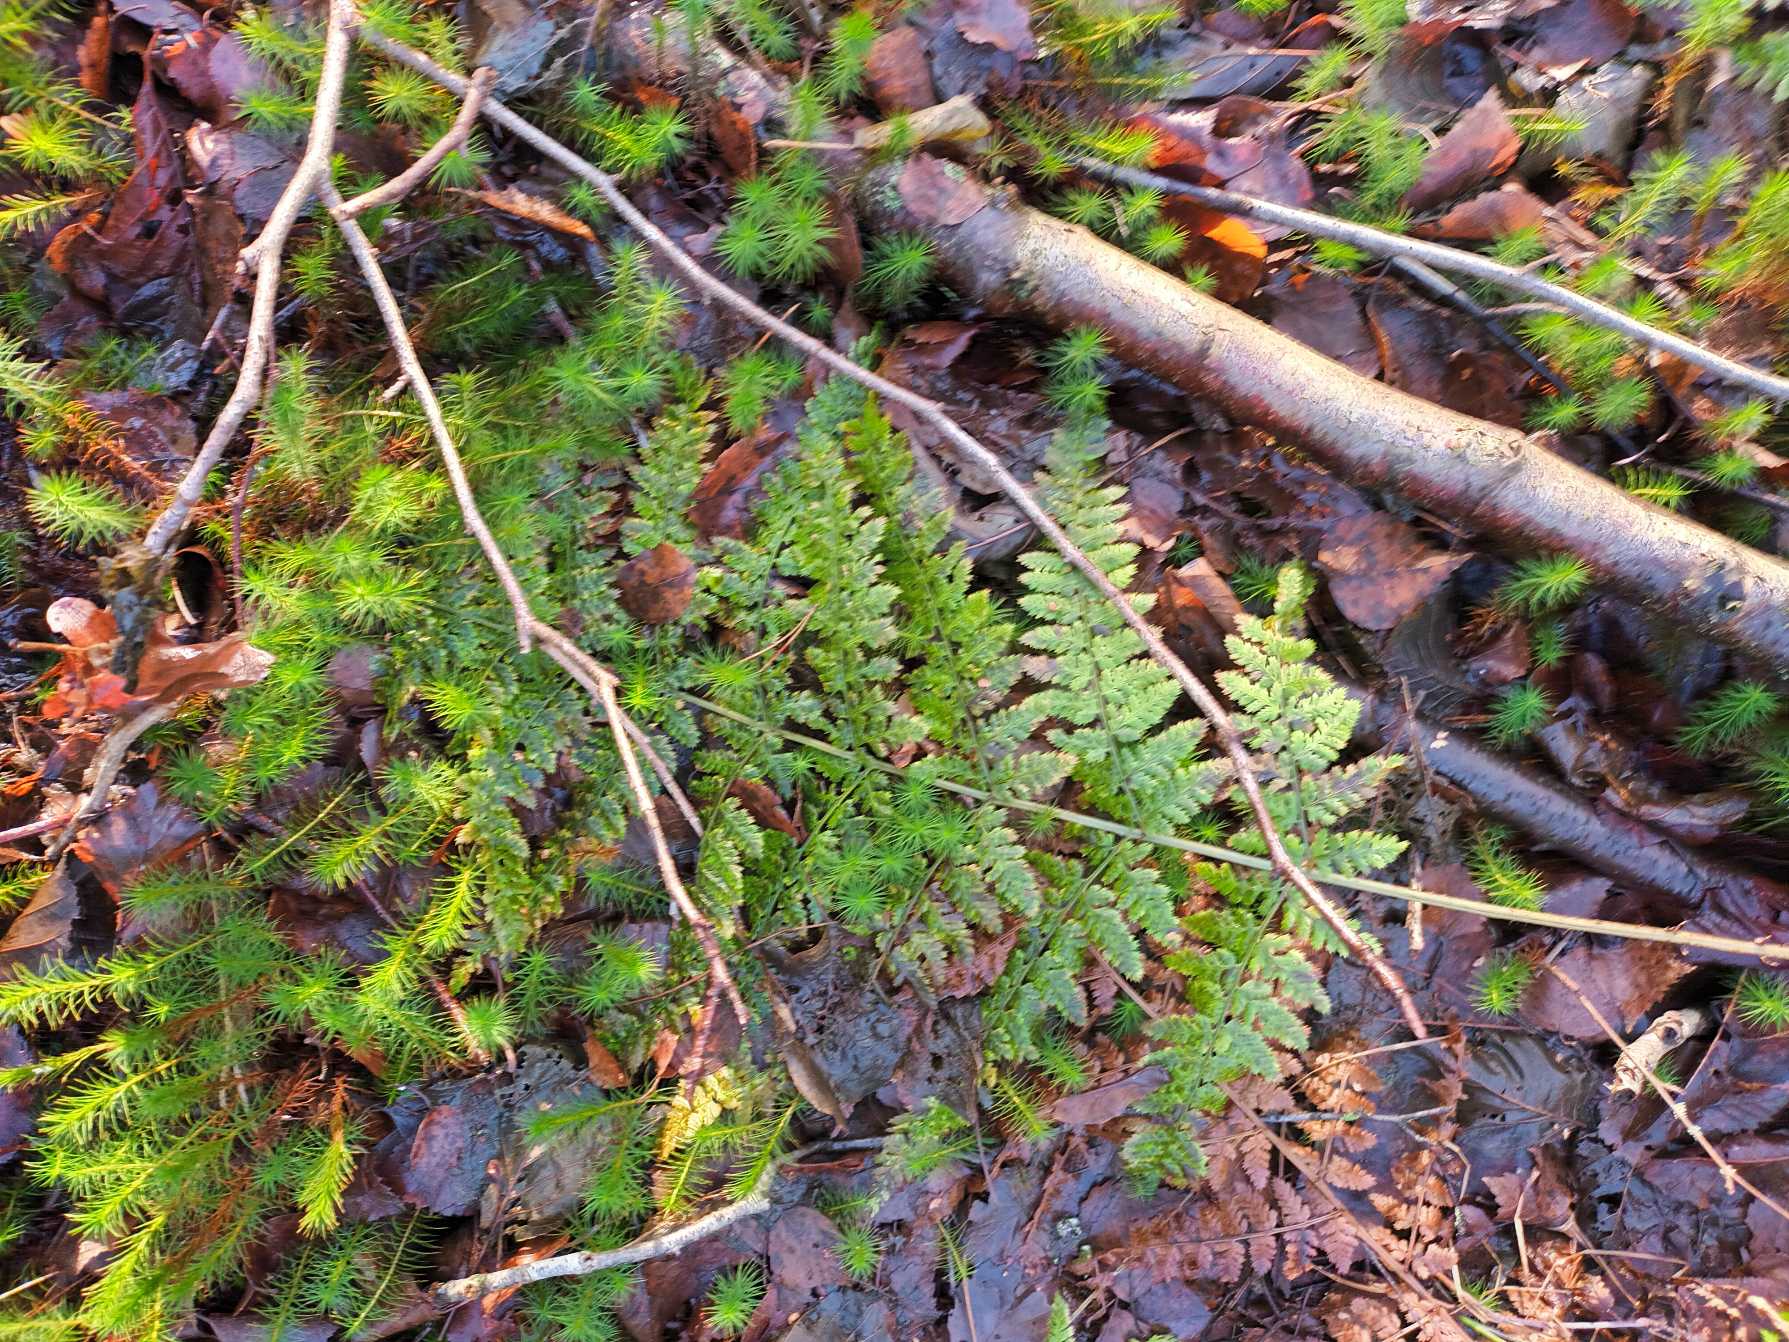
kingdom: Plantae
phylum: Tracheophyta
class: Polypodiopsida
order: Polypodiales
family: Dryopteridaceae
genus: Dryopteris
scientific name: Dryopteris dilatata
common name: Bredbladet mangeløv
